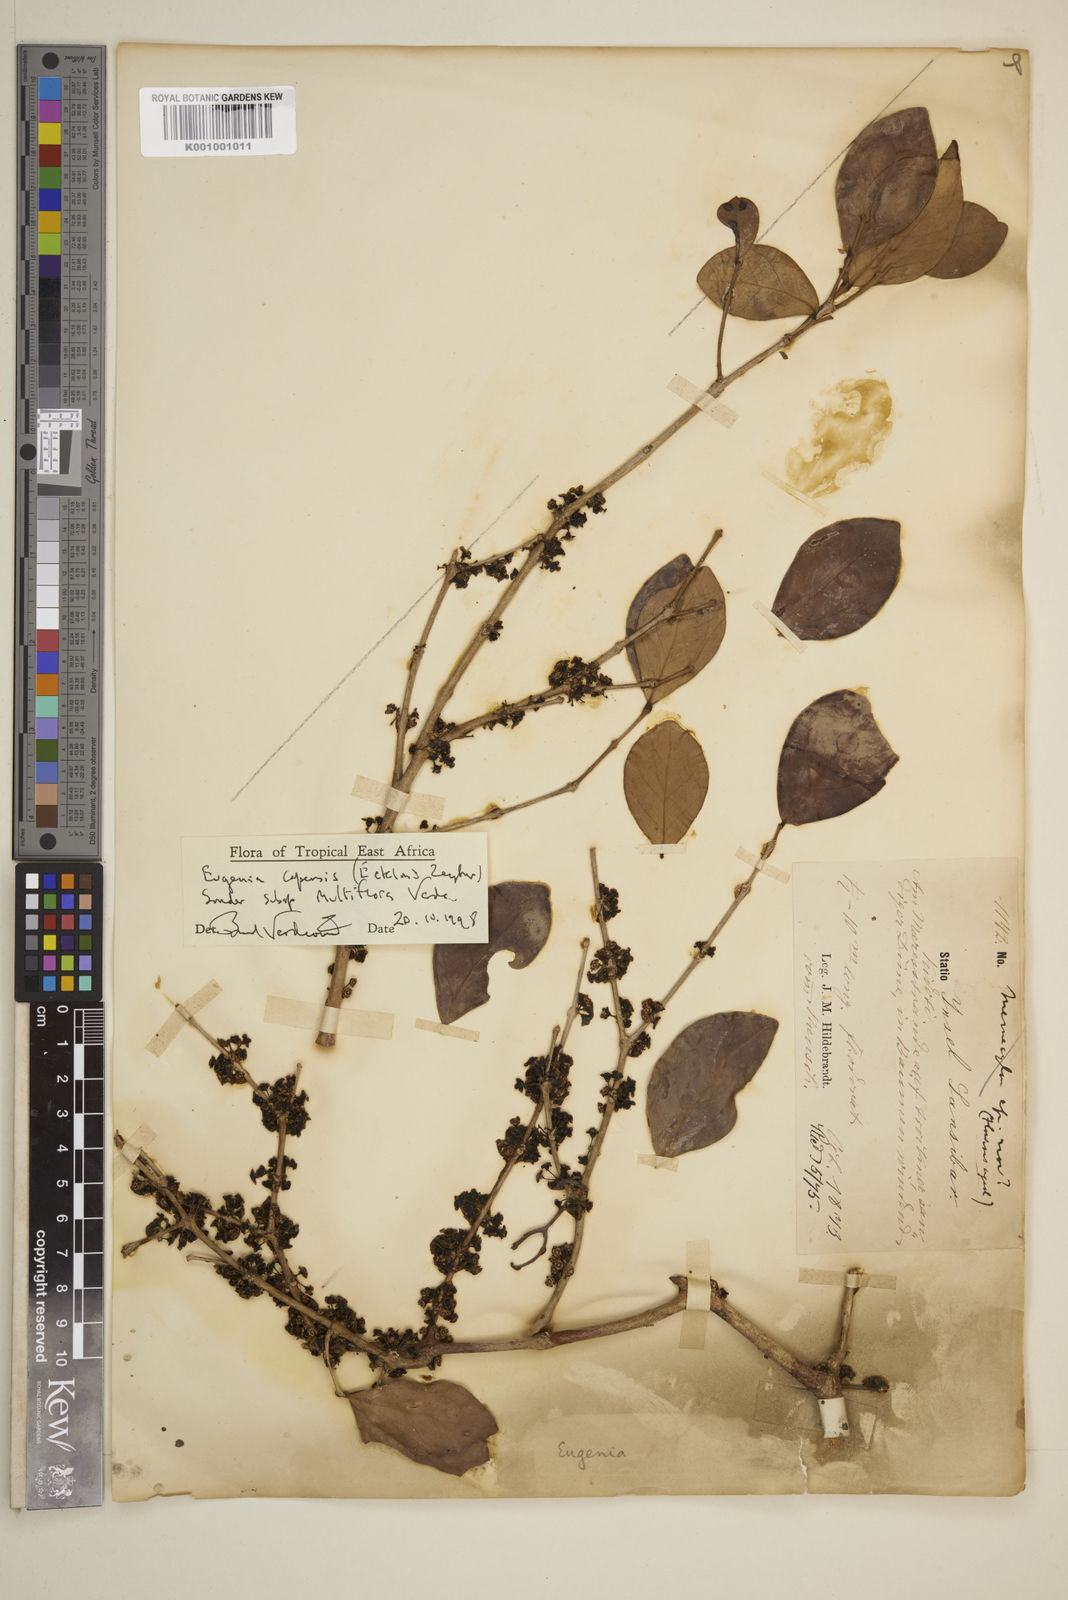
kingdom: Plantae
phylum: Tracheophyta
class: Magnoliopsida
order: Myrtales
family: Myrtaceae
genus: Eugenia
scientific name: Eugenia capensis
